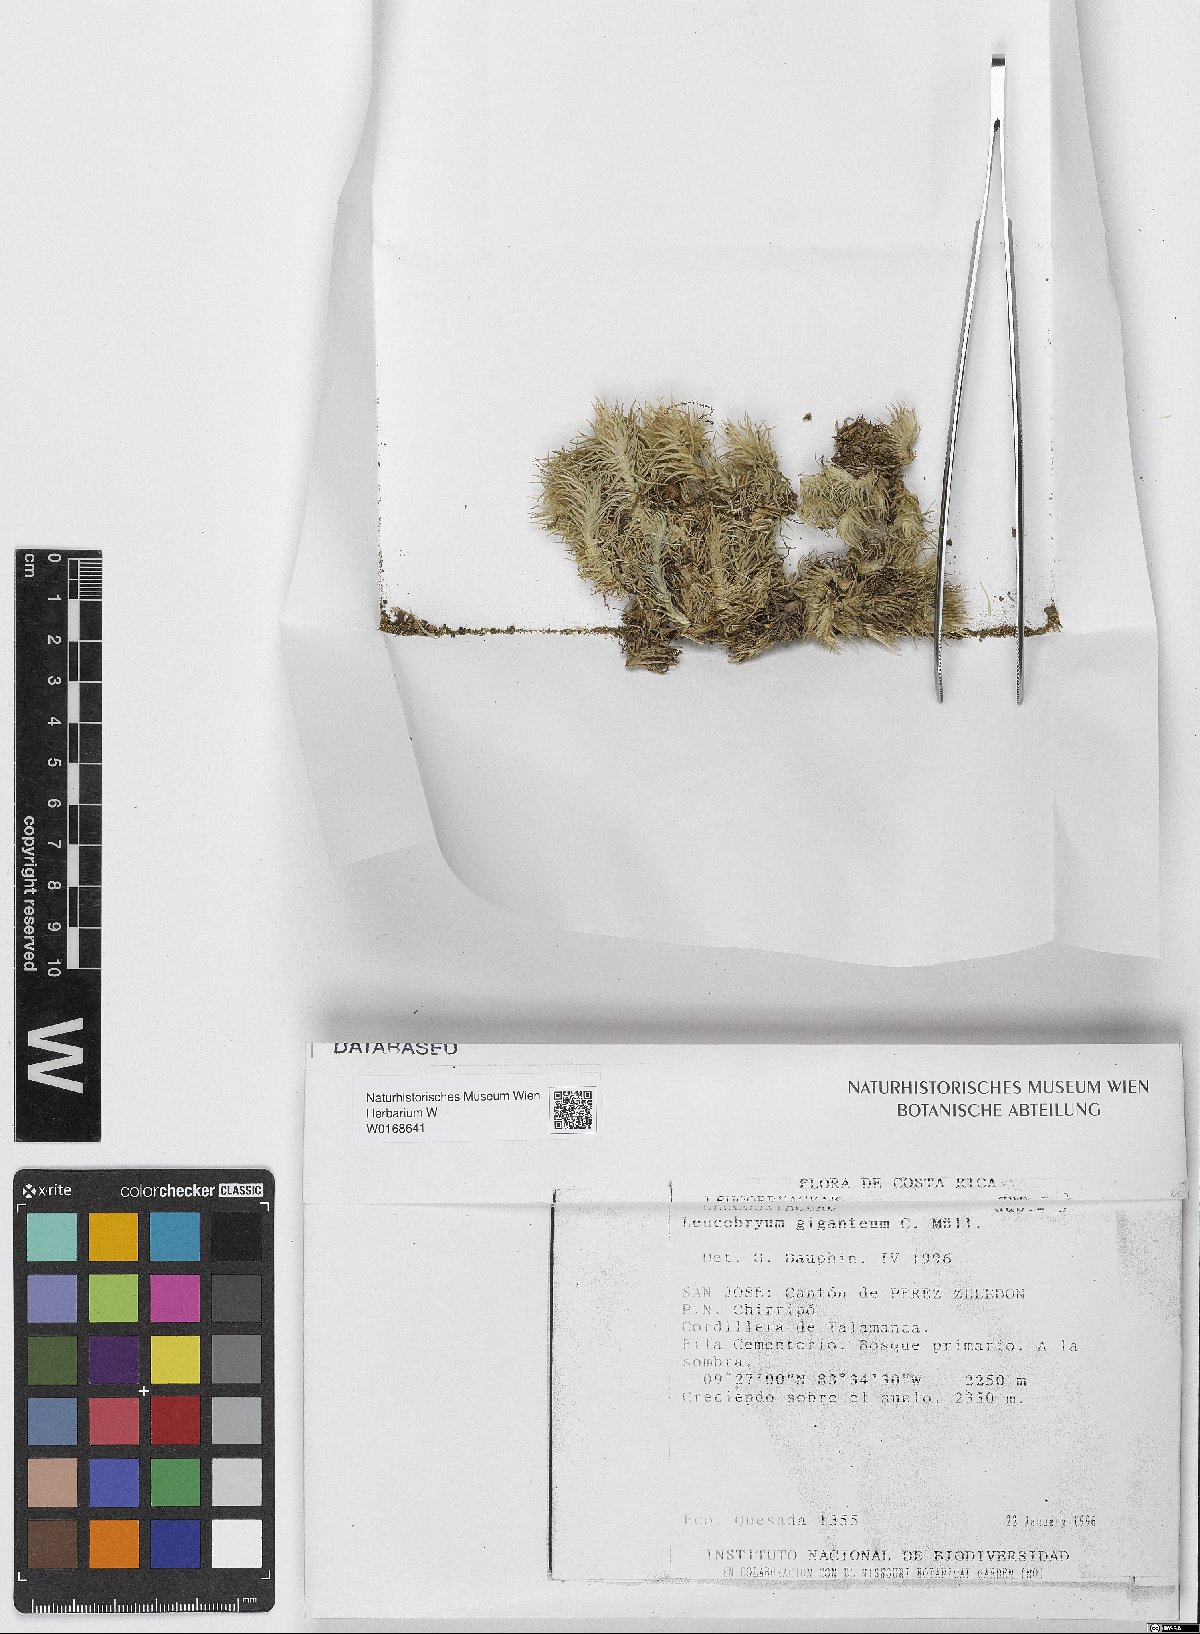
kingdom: Plantae
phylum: Bryophyta
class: Bryopsida
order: Dicranales
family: Leucobryaceae
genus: Leucobryum
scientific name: Leucobryum giganteum
